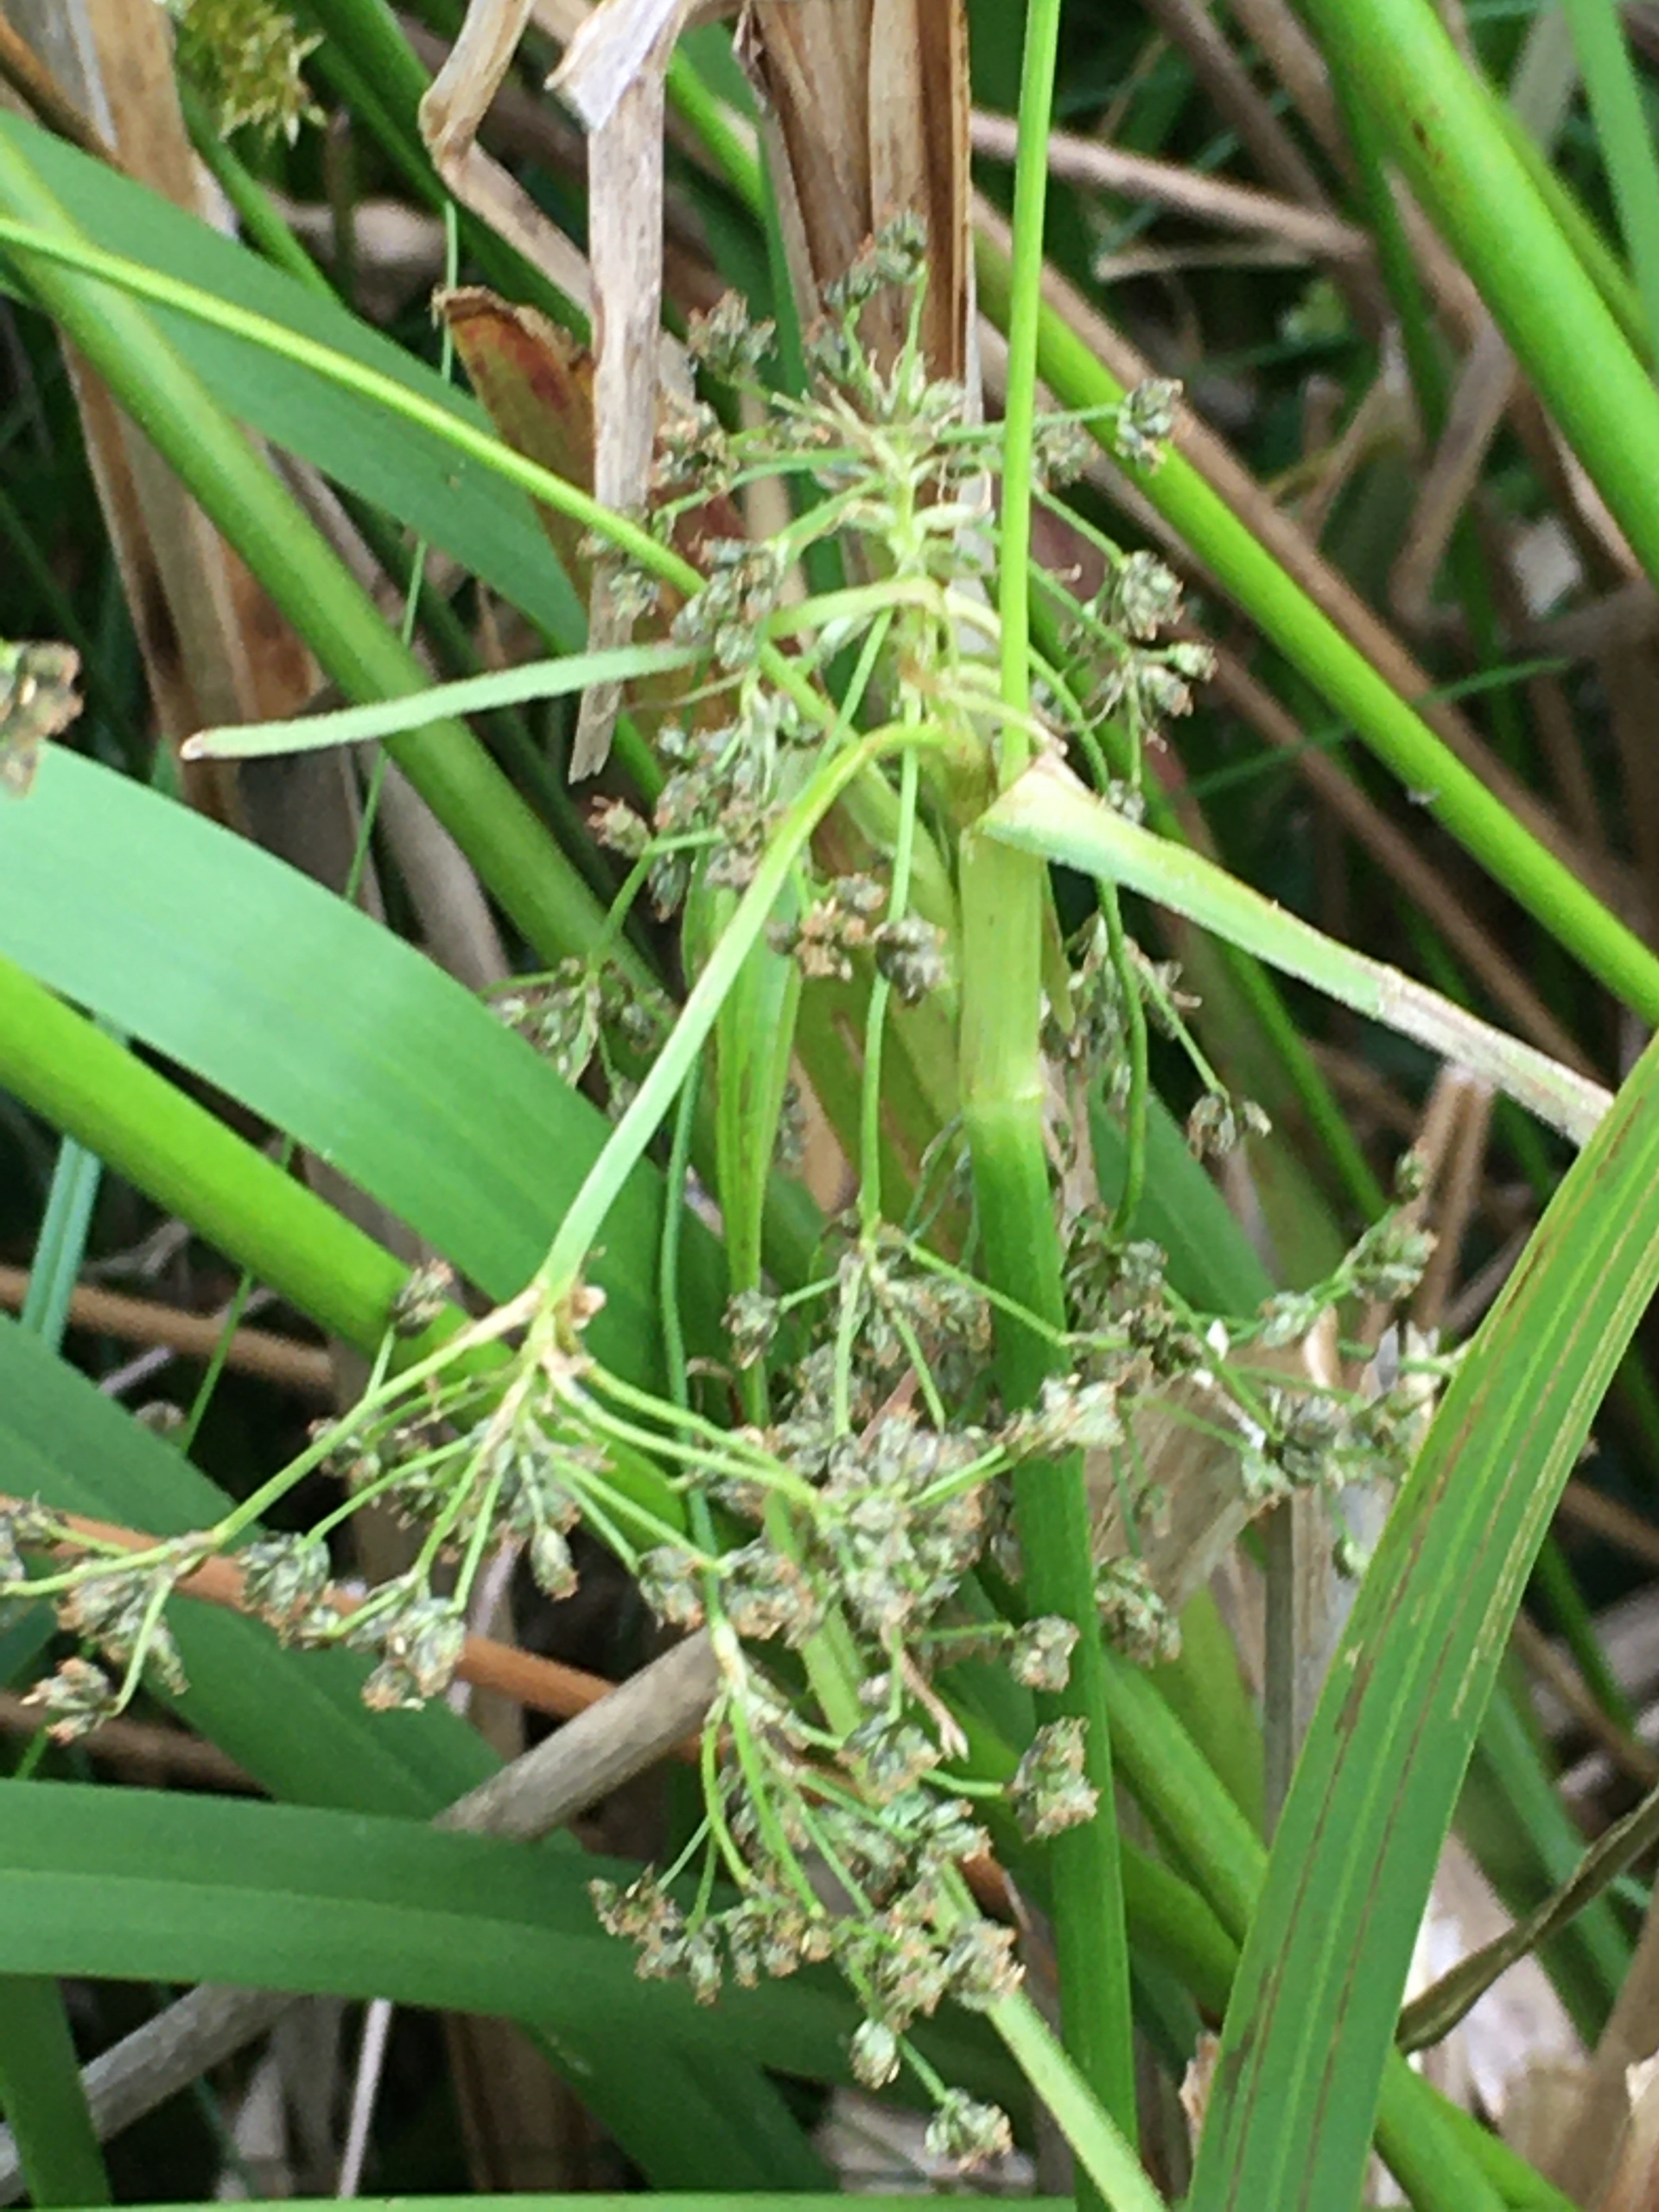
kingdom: Plantae
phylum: Tracheophyta
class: Liliopsida
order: Poales
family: Cyperaceae
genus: Scirpus
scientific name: Scirpus sylvaticus
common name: Skov-kogleaks
